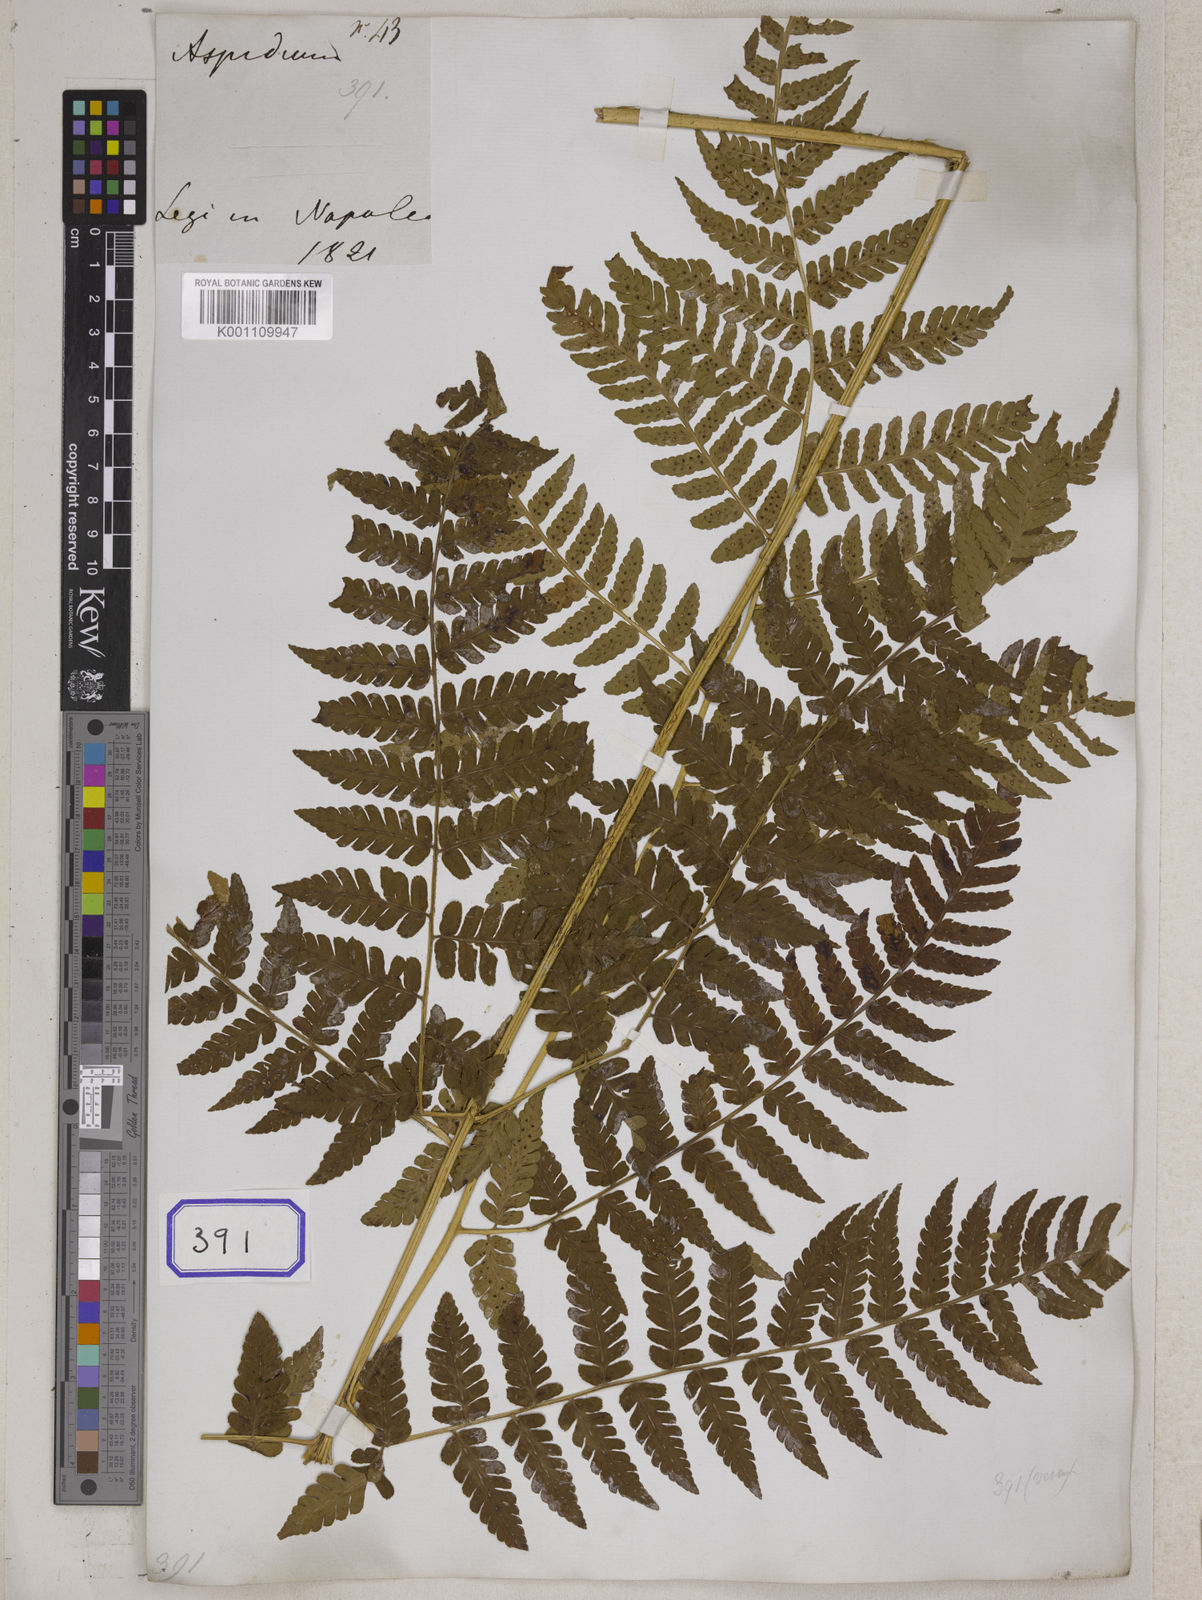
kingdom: Plantae
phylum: Tracheophyta
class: Polypodiopsida
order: Polypodiales
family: Tectariaceae
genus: Tectaria
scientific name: Tectaria Aspidium spec
